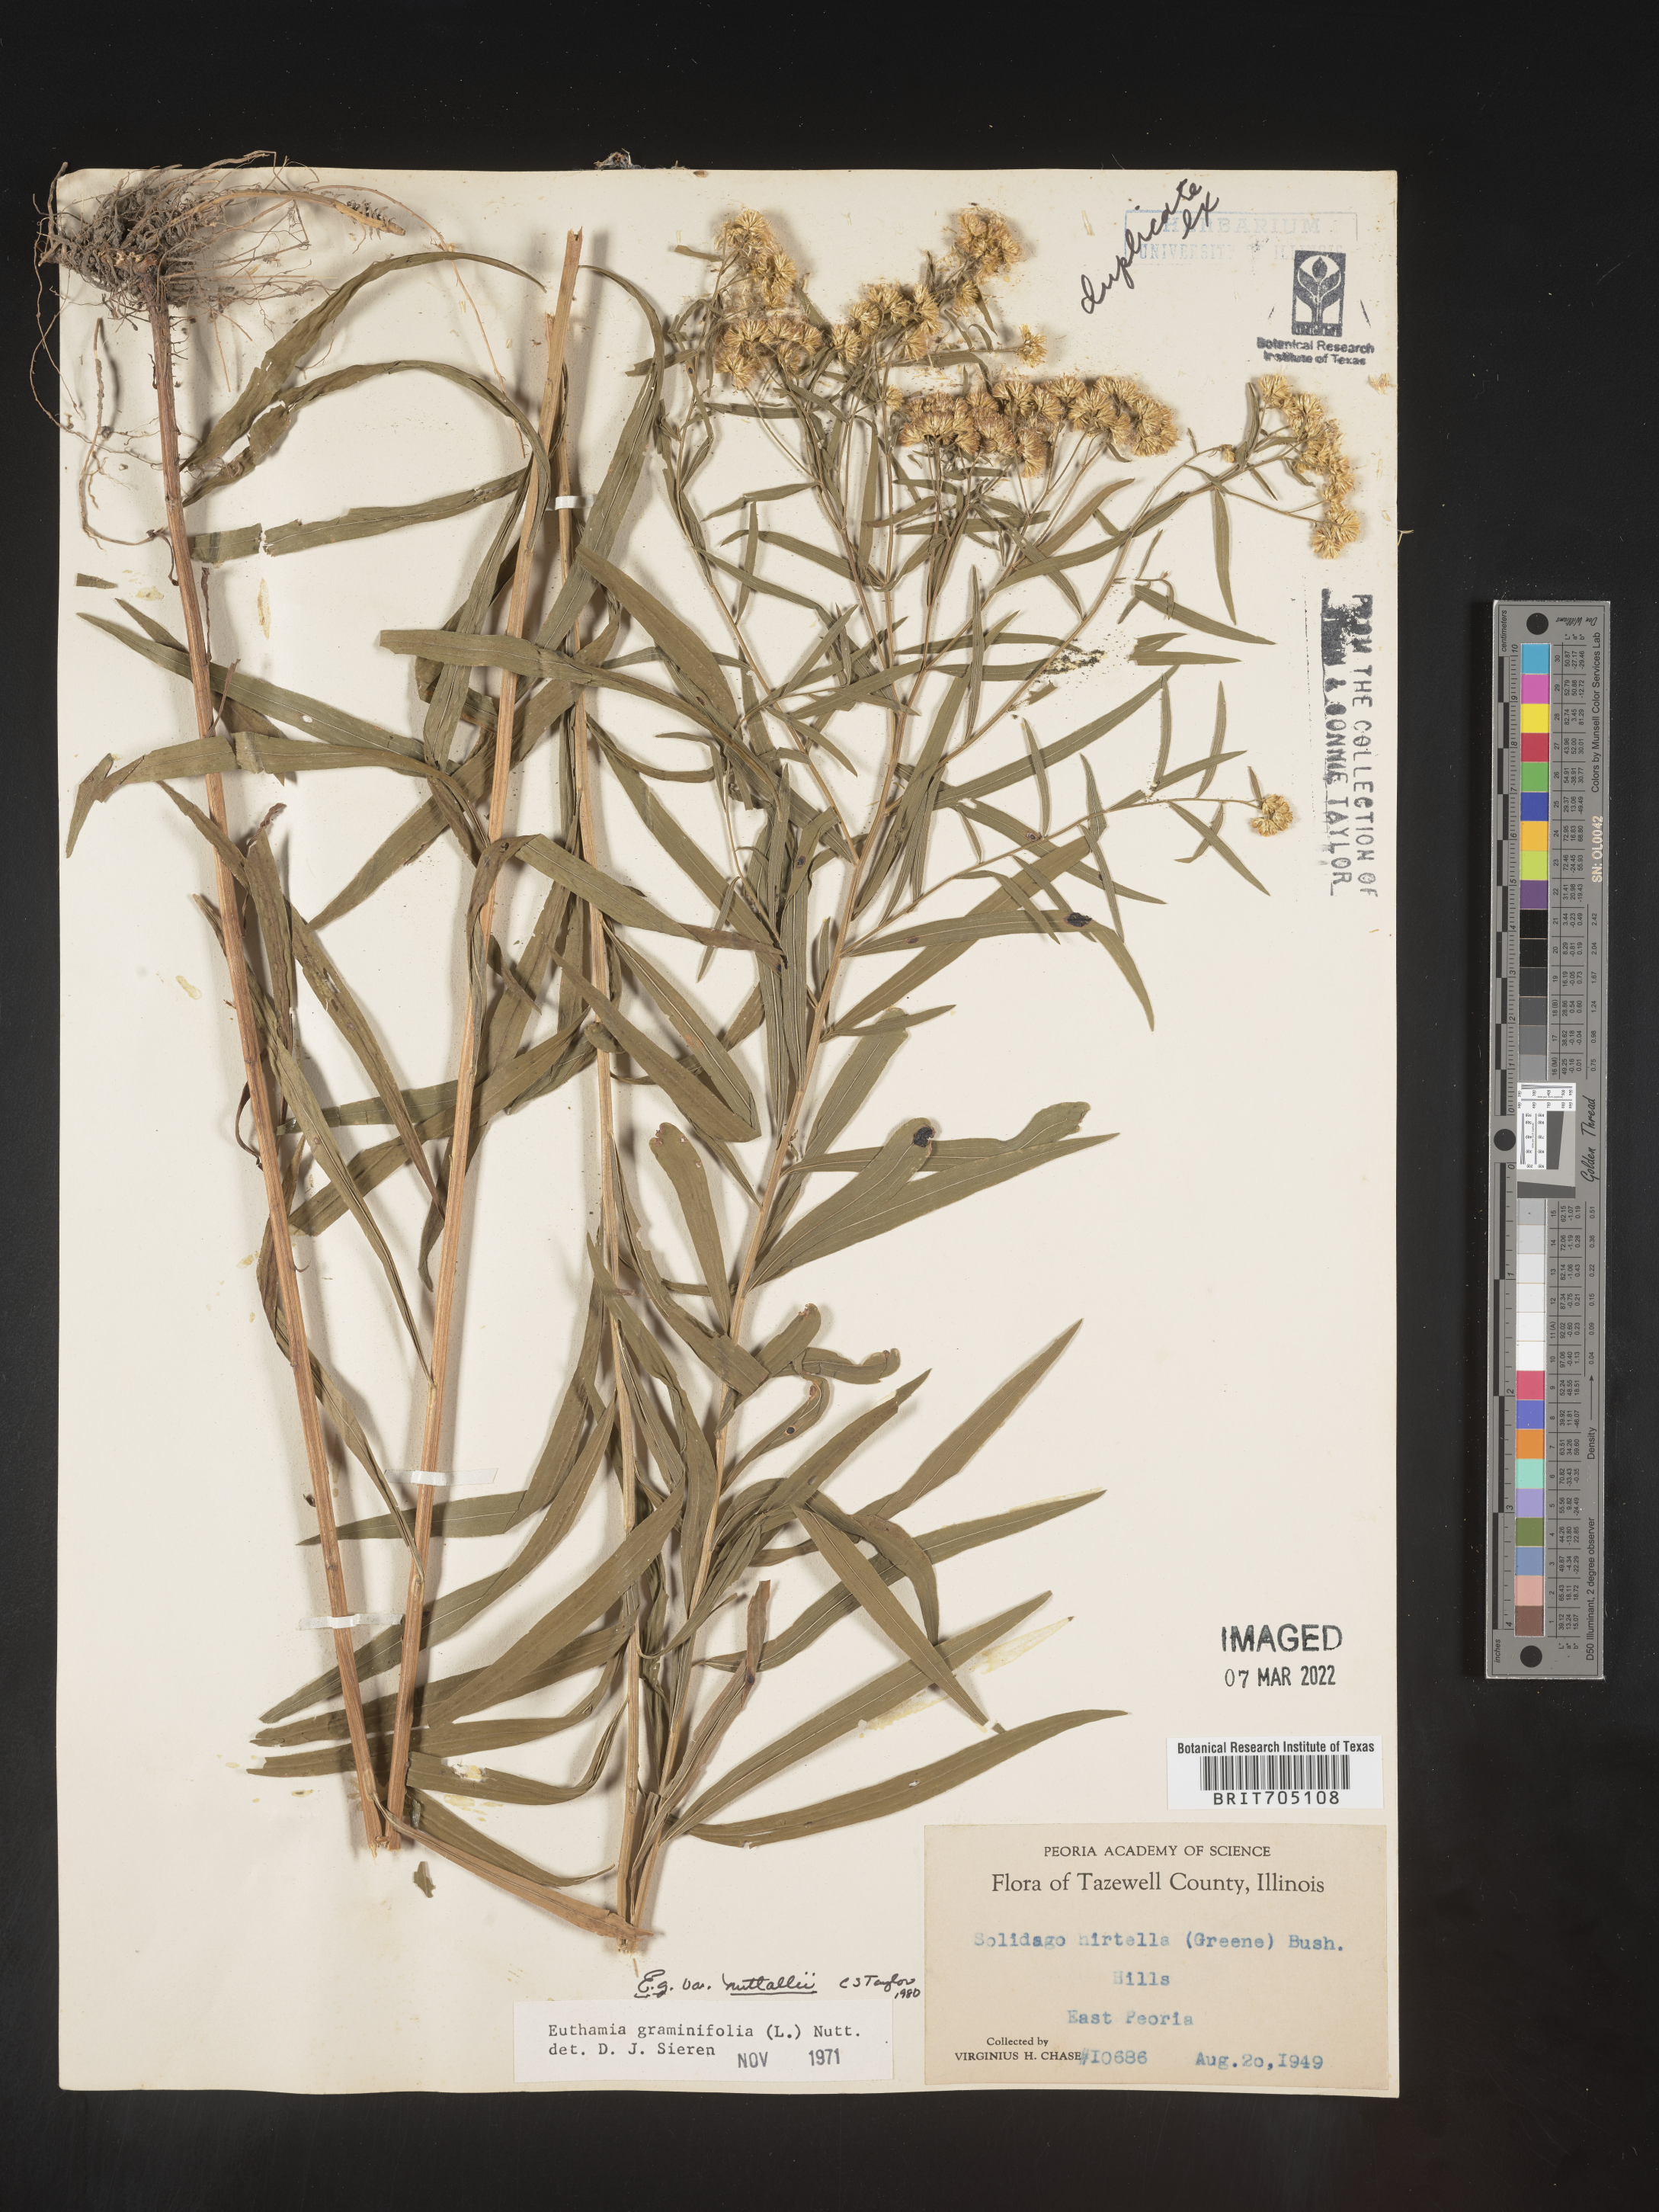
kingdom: Plantae
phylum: Tracheophyta
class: Magnoliopsida
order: Asterales
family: Asteraceae
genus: Euthamia
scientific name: Euthamia graminifolia
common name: Common goldentop
